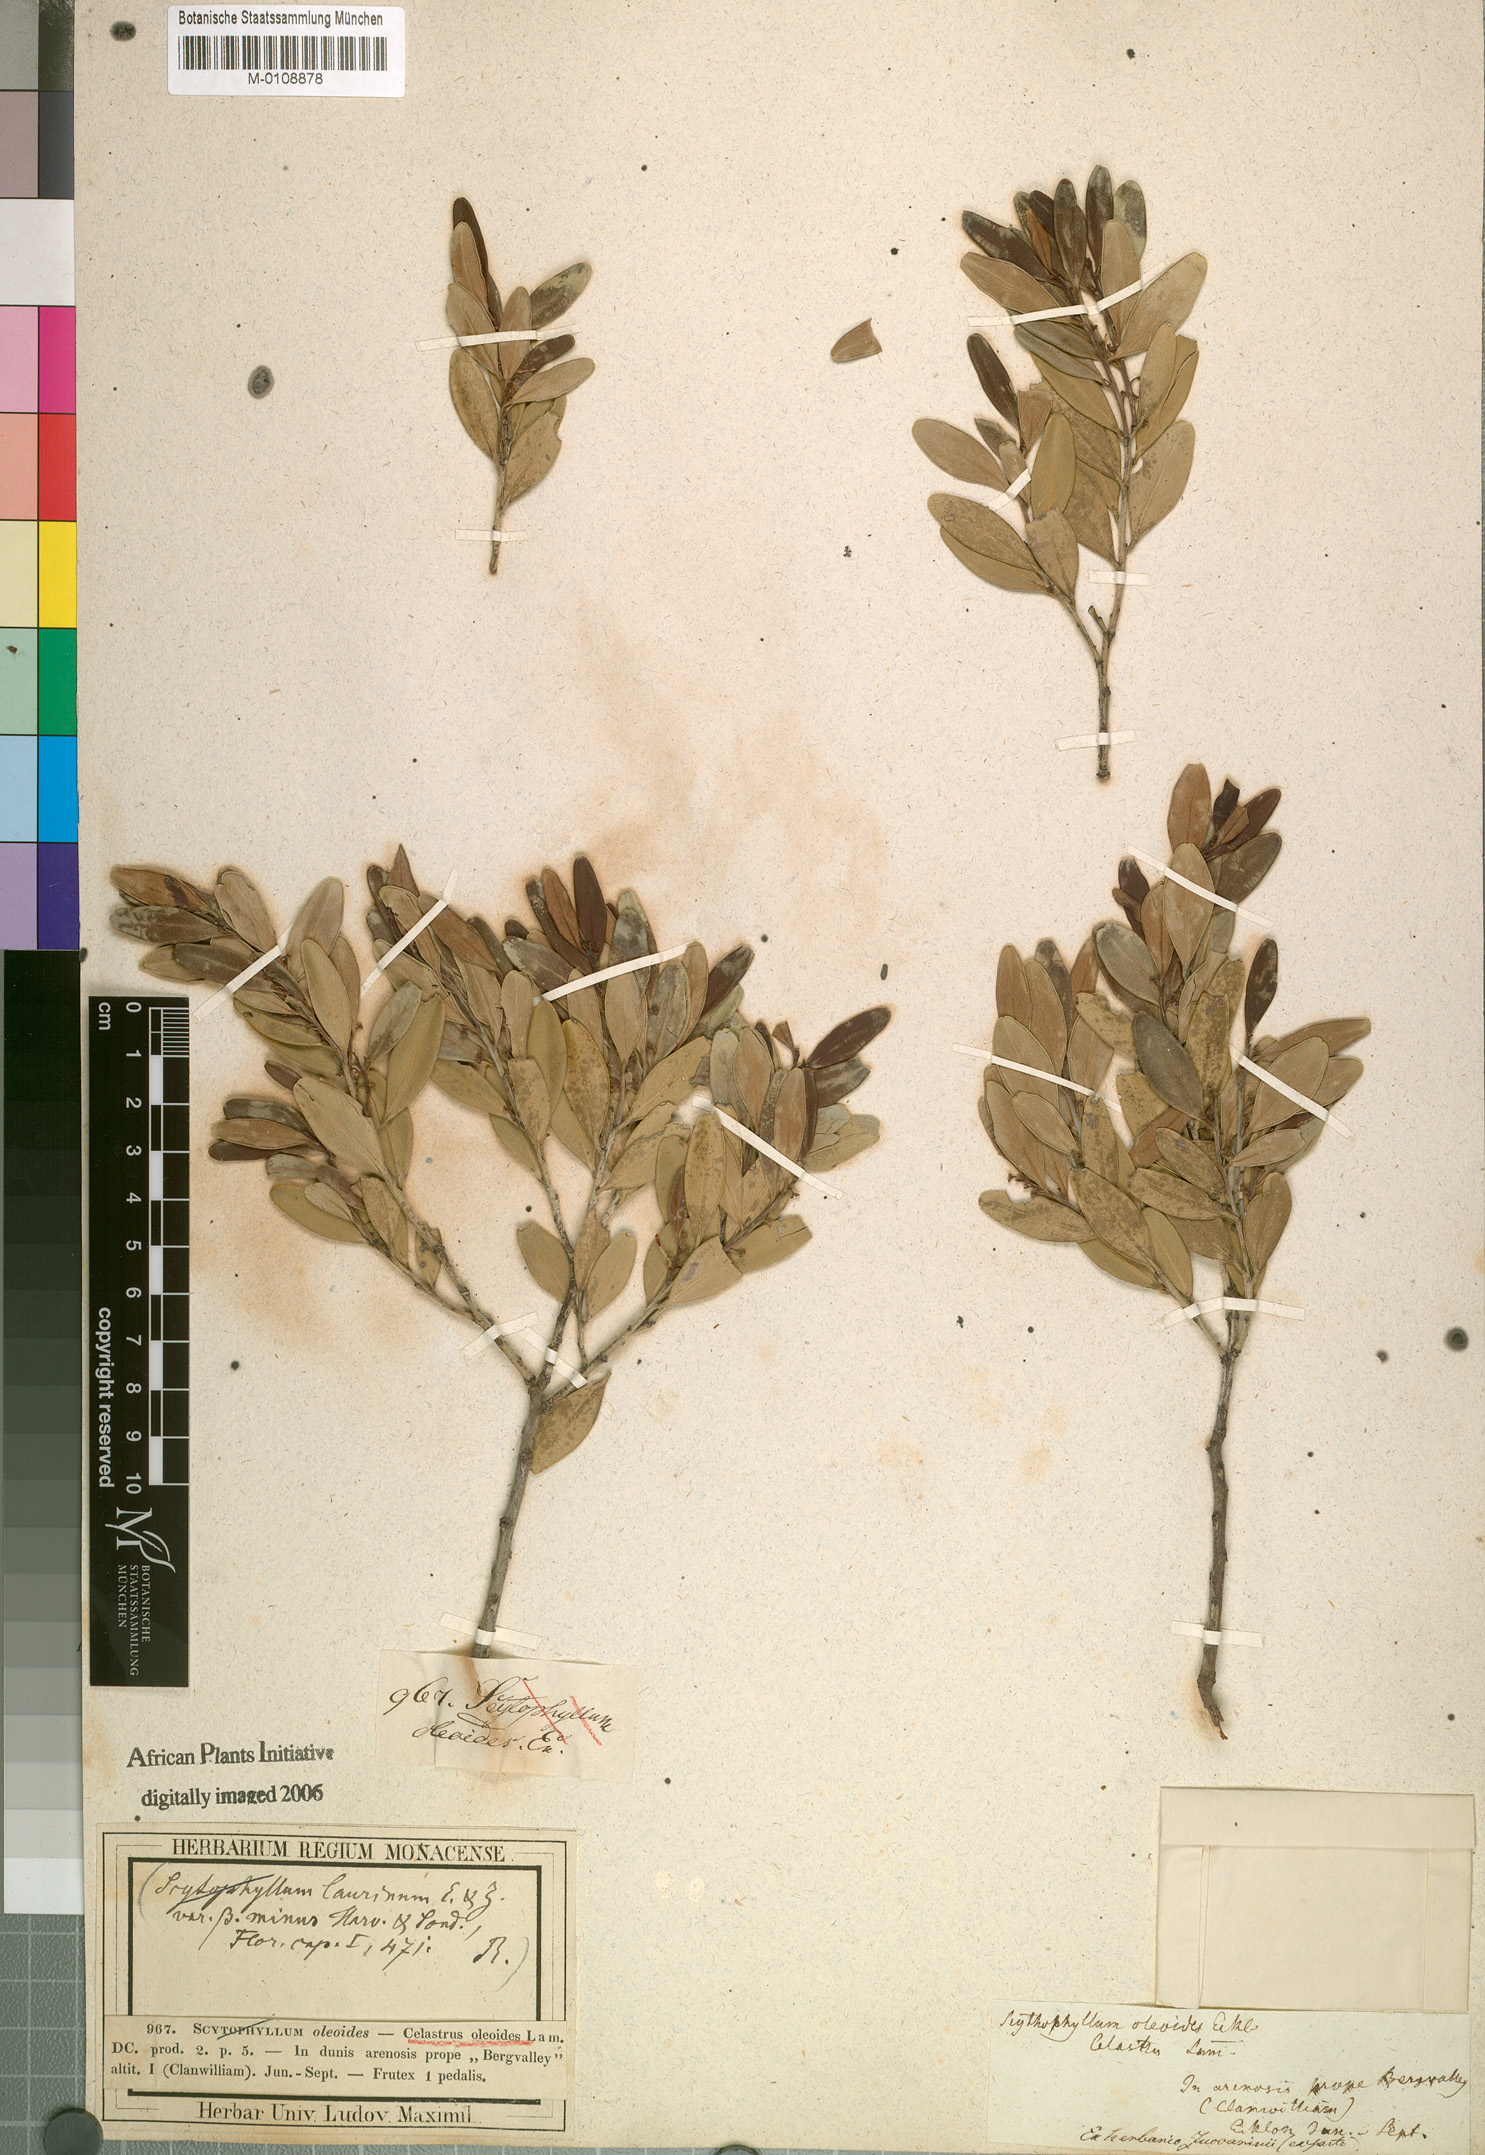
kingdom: Plantae
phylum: Tracheophyta
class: Magnoliopsida
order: Celastrales
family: Celastraceae
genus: Gymnosporia
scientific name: Gymnosporia laurina
